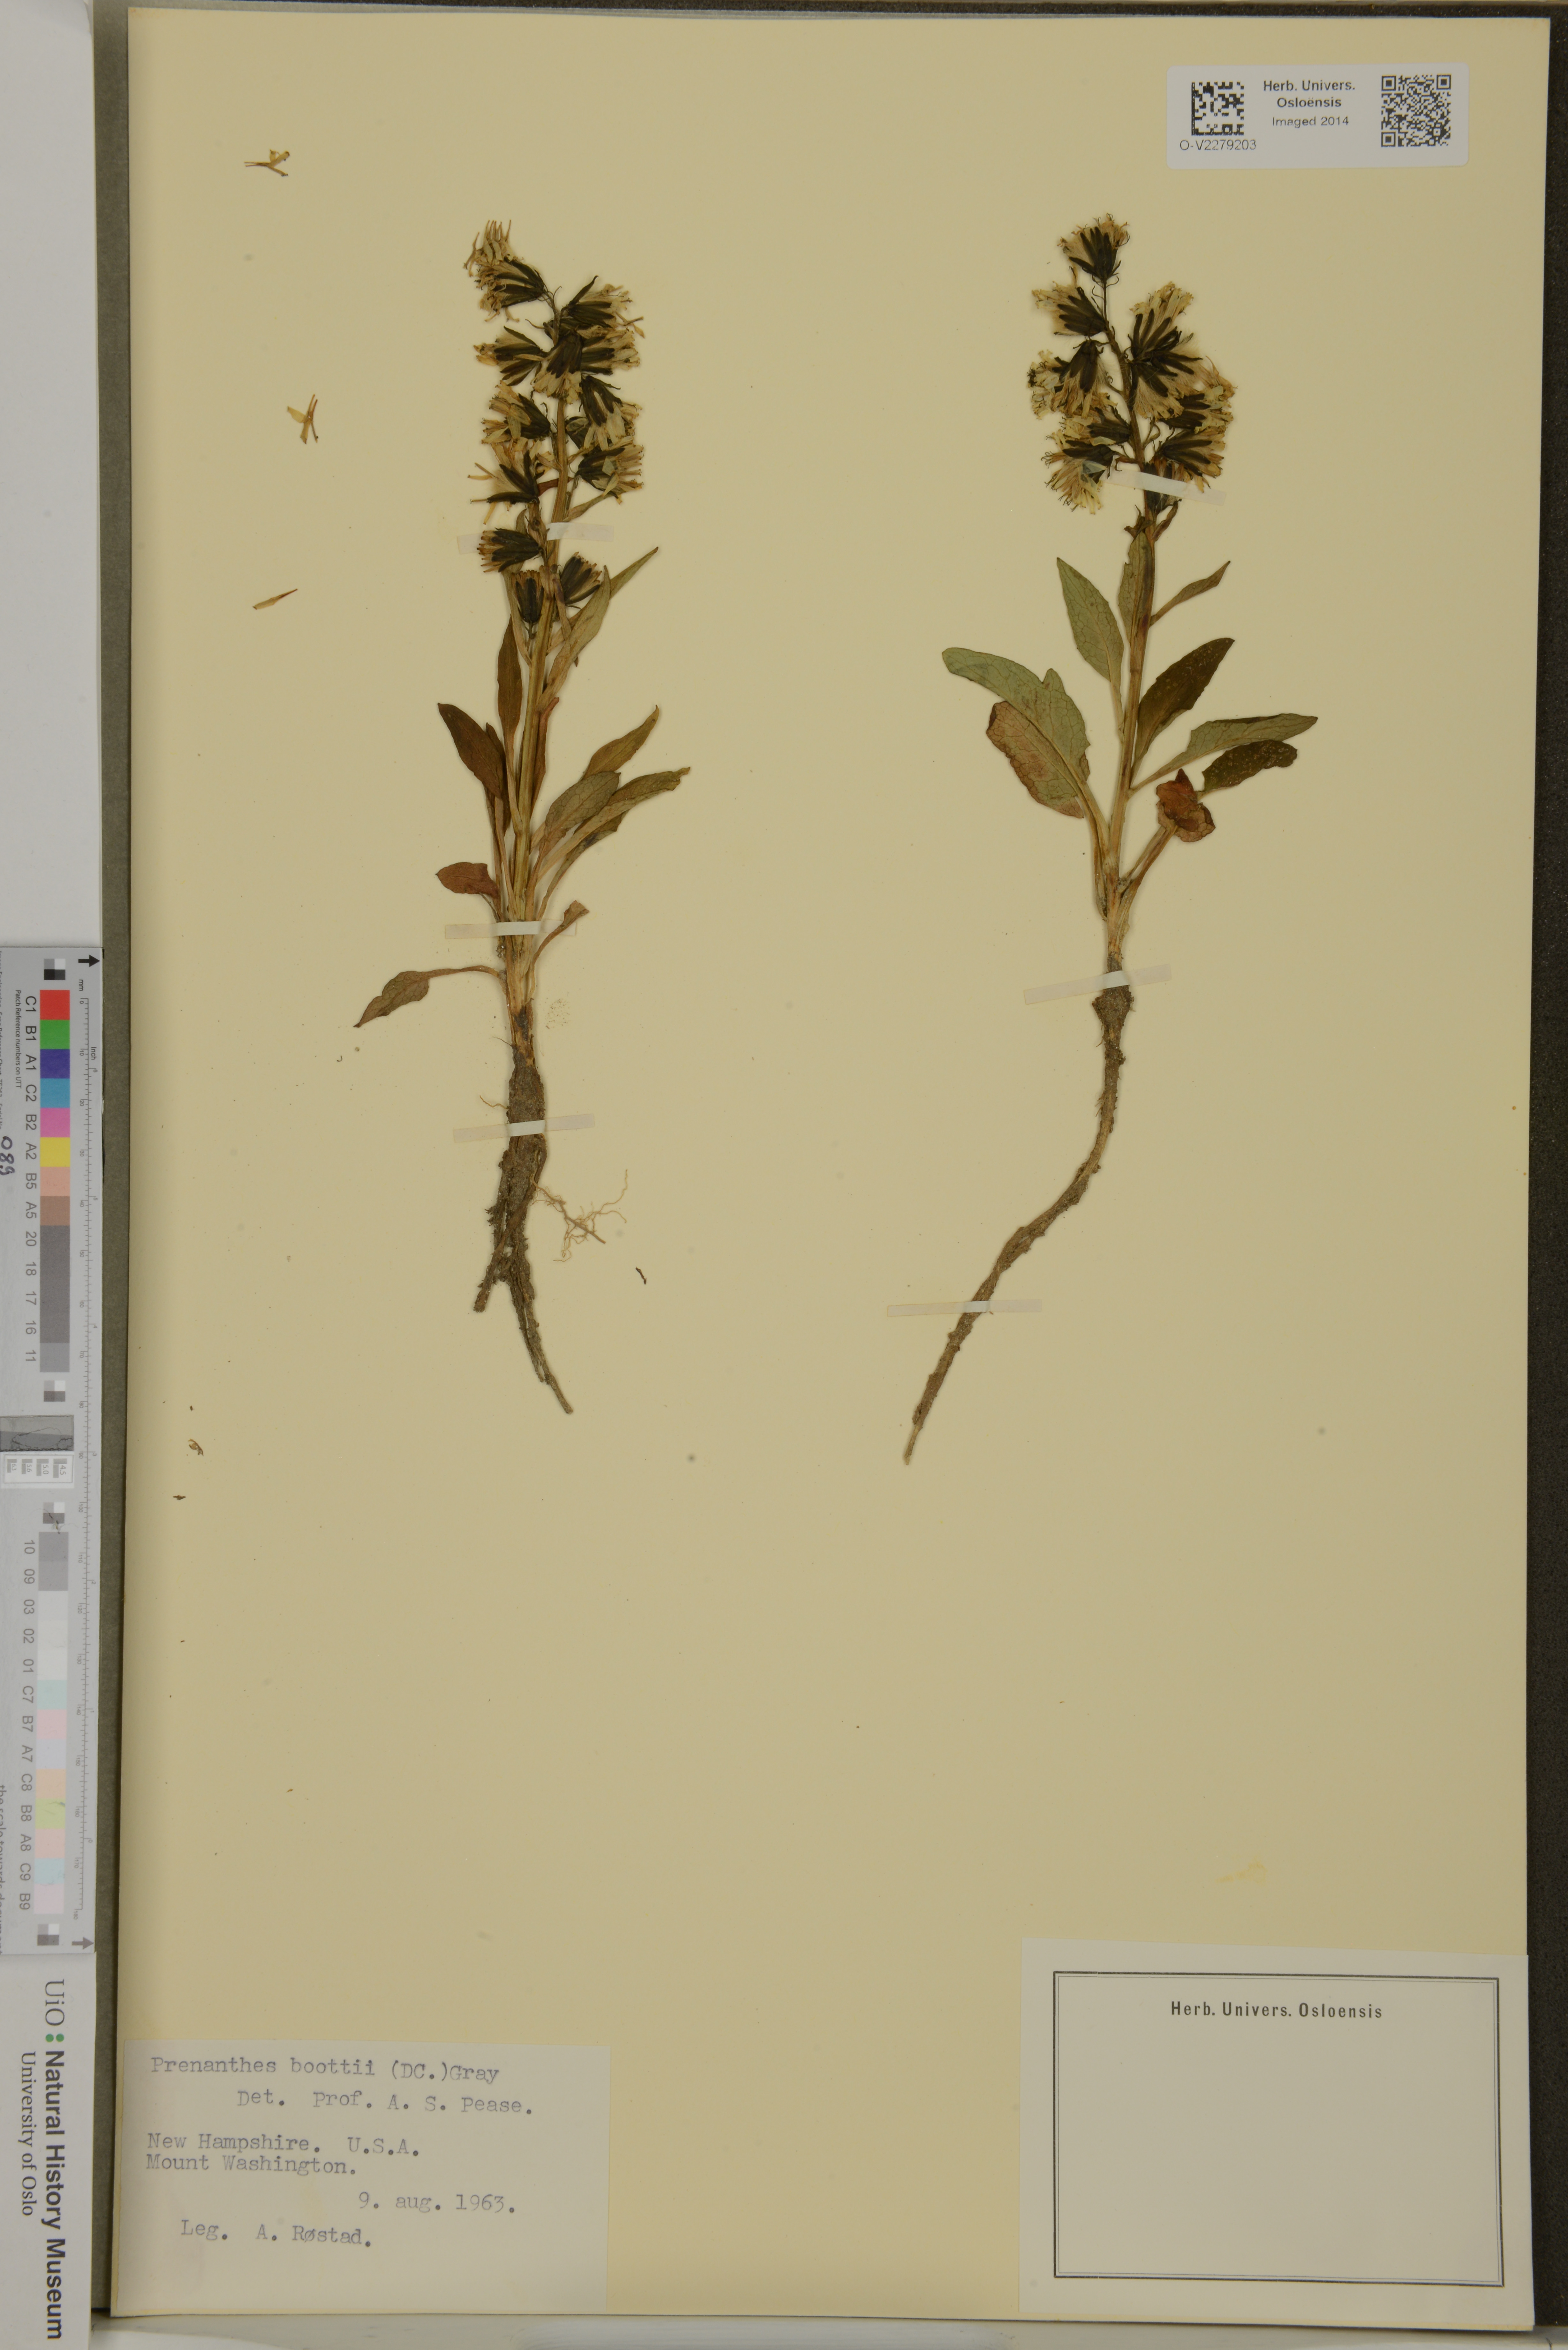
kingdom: Plantae
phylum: Tracheophyta
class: Magnoliopsida
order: Asterales
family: Asteraceae
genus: Nabalus
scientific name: Nabalus boottii
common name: Boot’s rattlesnakeroot
